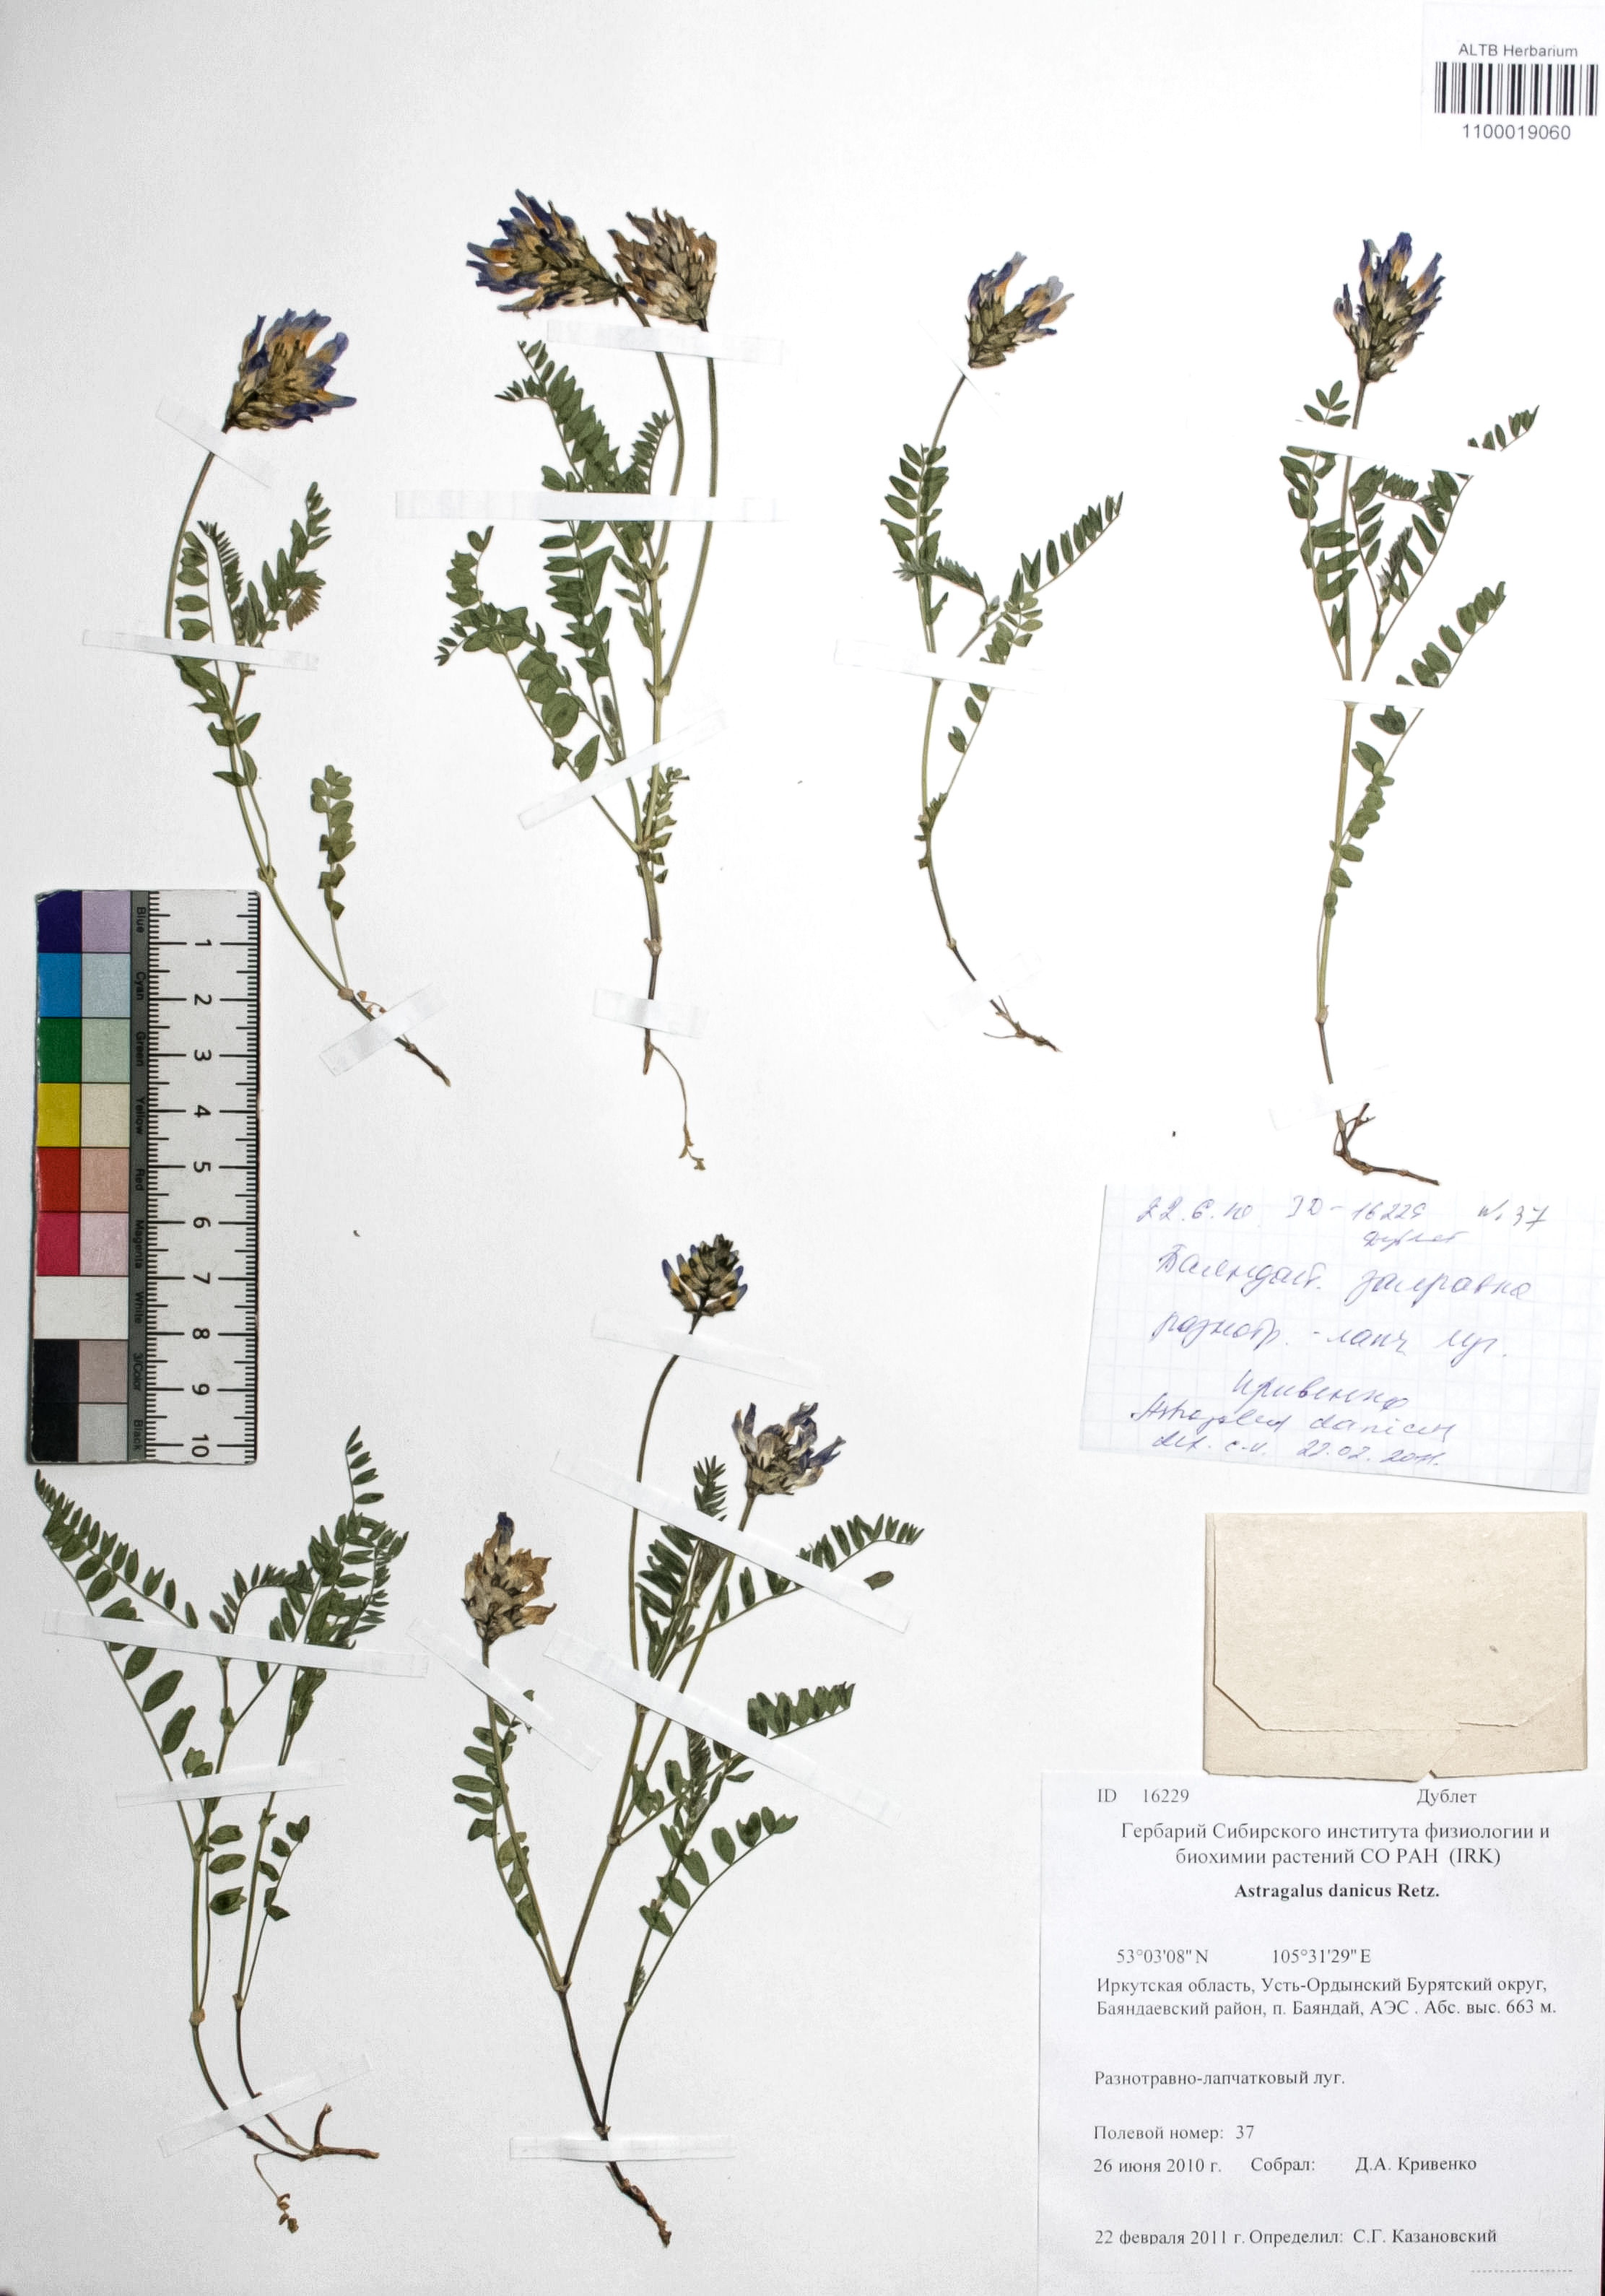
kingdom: Plantae
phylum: Tracheophyta
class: Magnoliopsida
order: Fabales
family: Fabaceae
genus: Astragalus
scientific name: Astragalus danicus
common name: Purple milk-vetch
